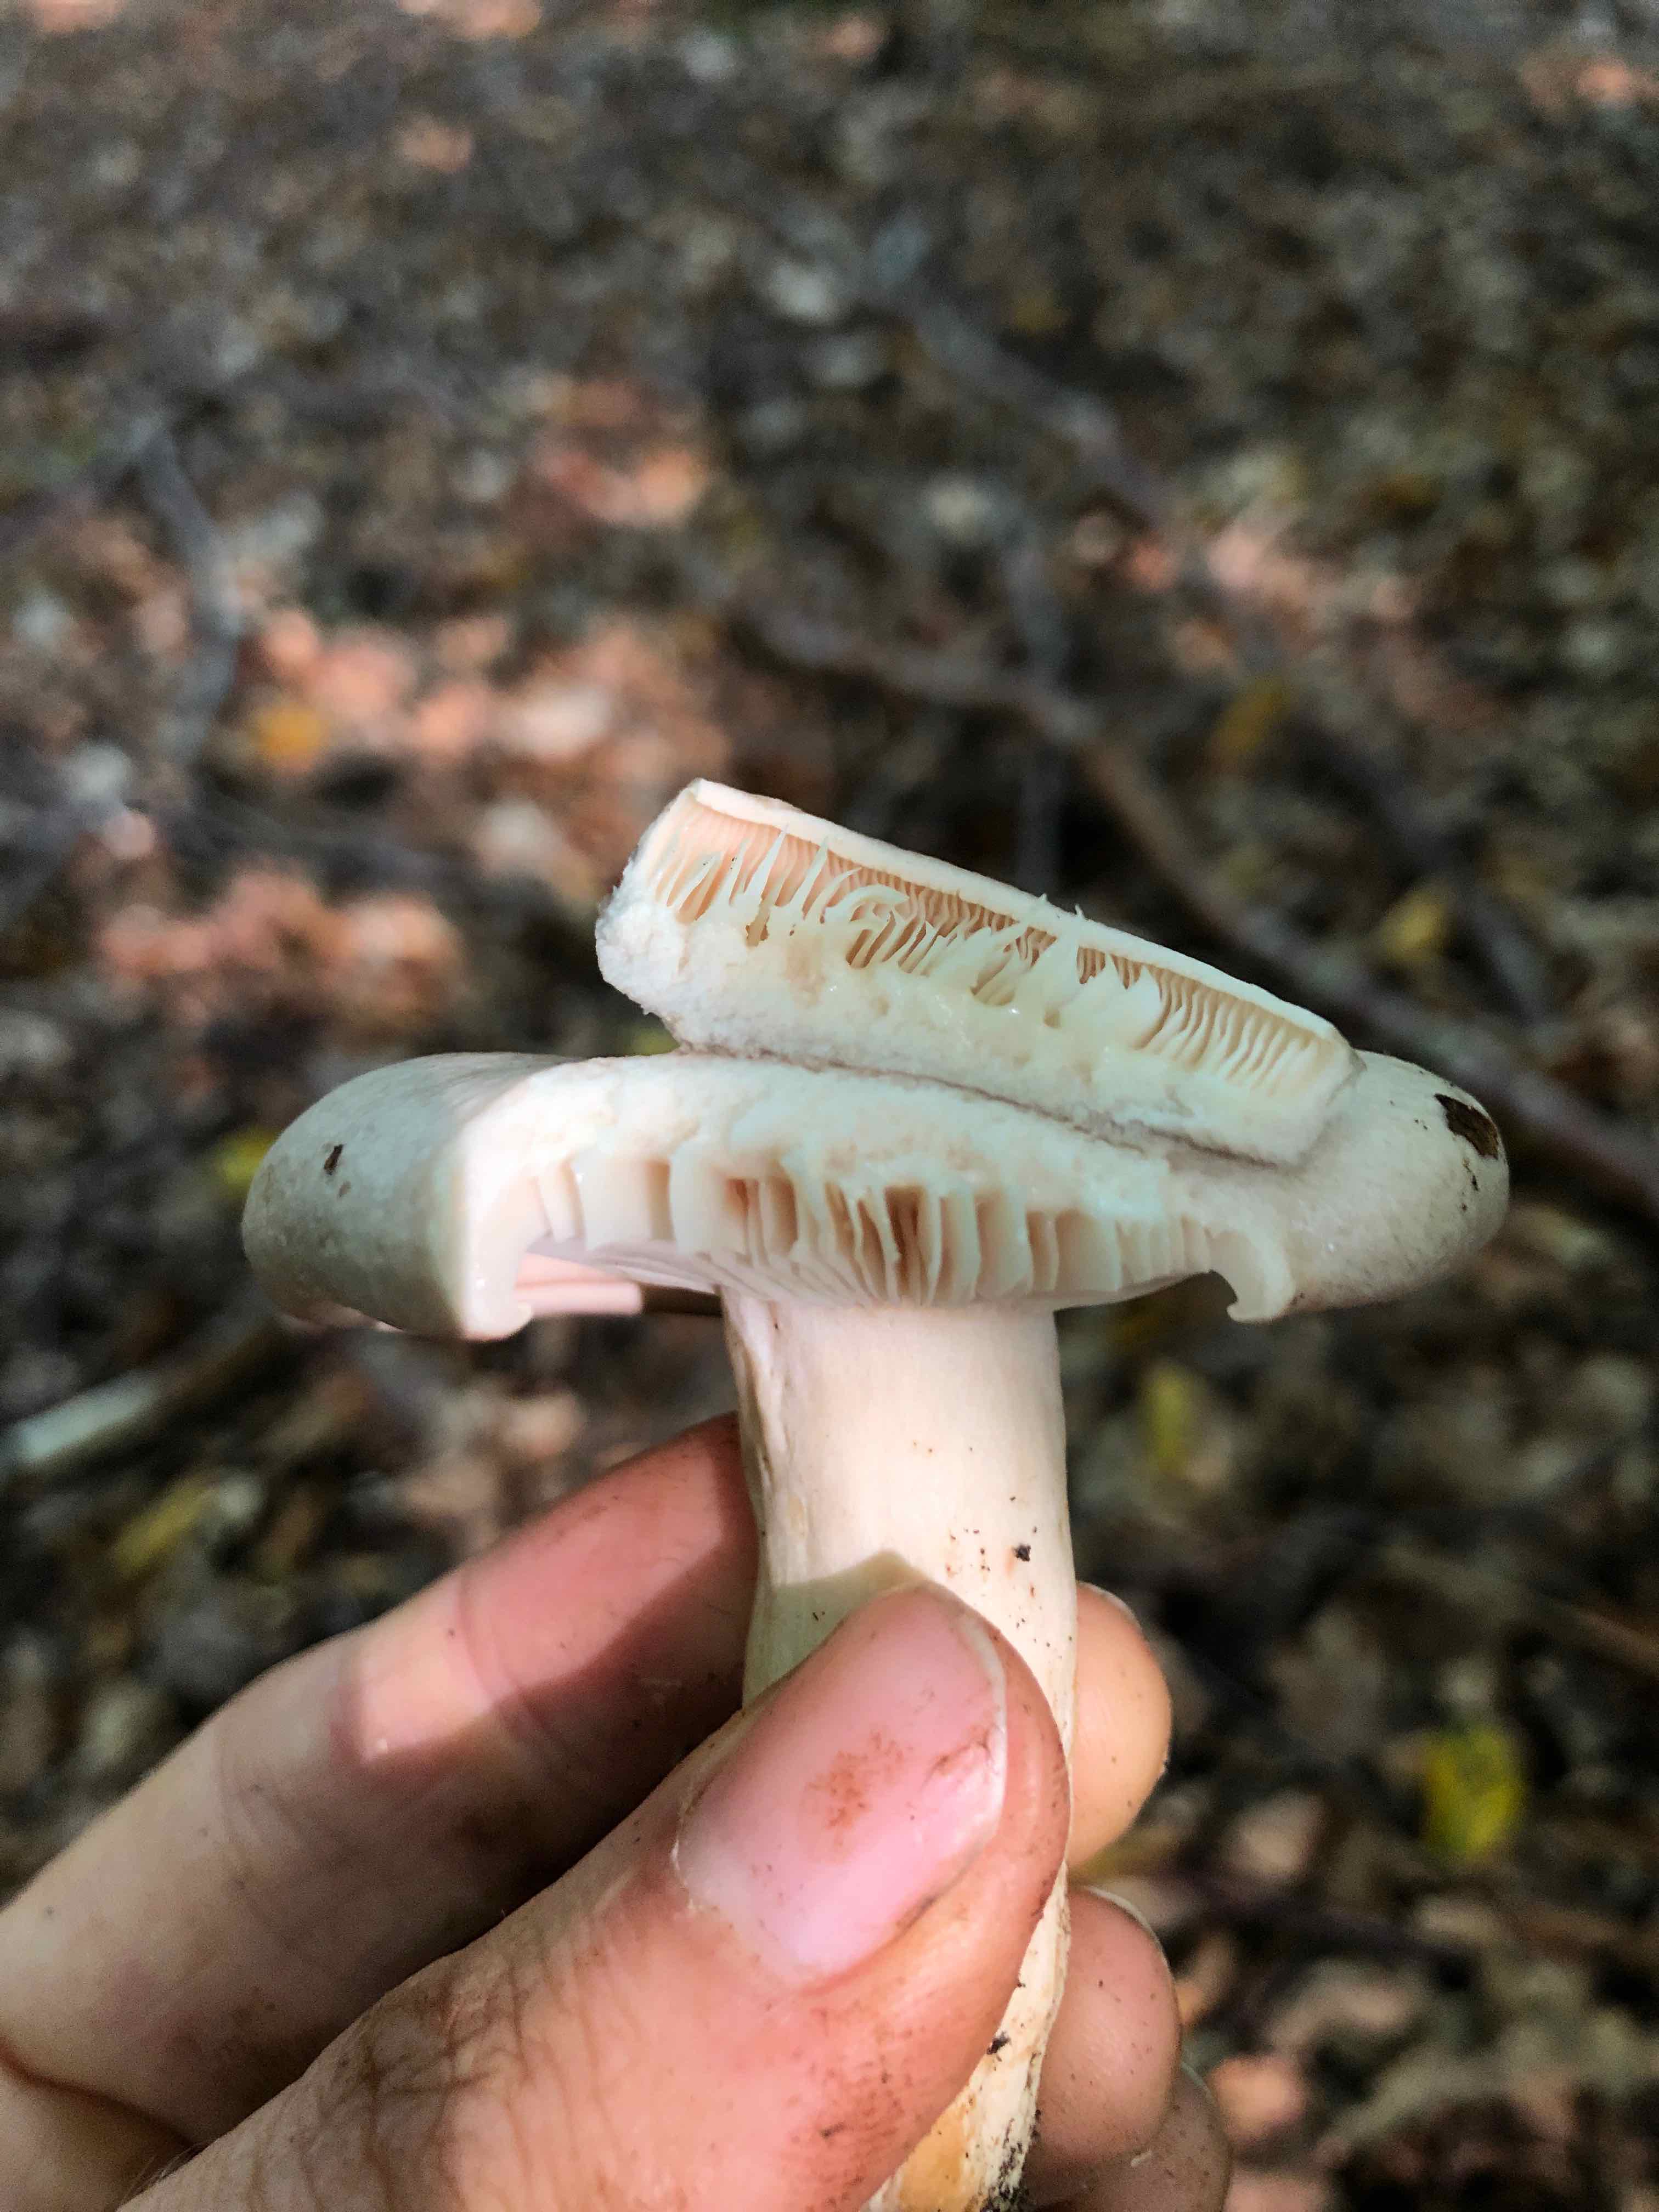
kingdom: Fungi
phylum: Basidiomycota
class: Agaricomycetes
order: Russulales
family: Russulaceae
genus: Lactarius
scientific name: Lactarius pallidus
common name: bleg mælkehat
